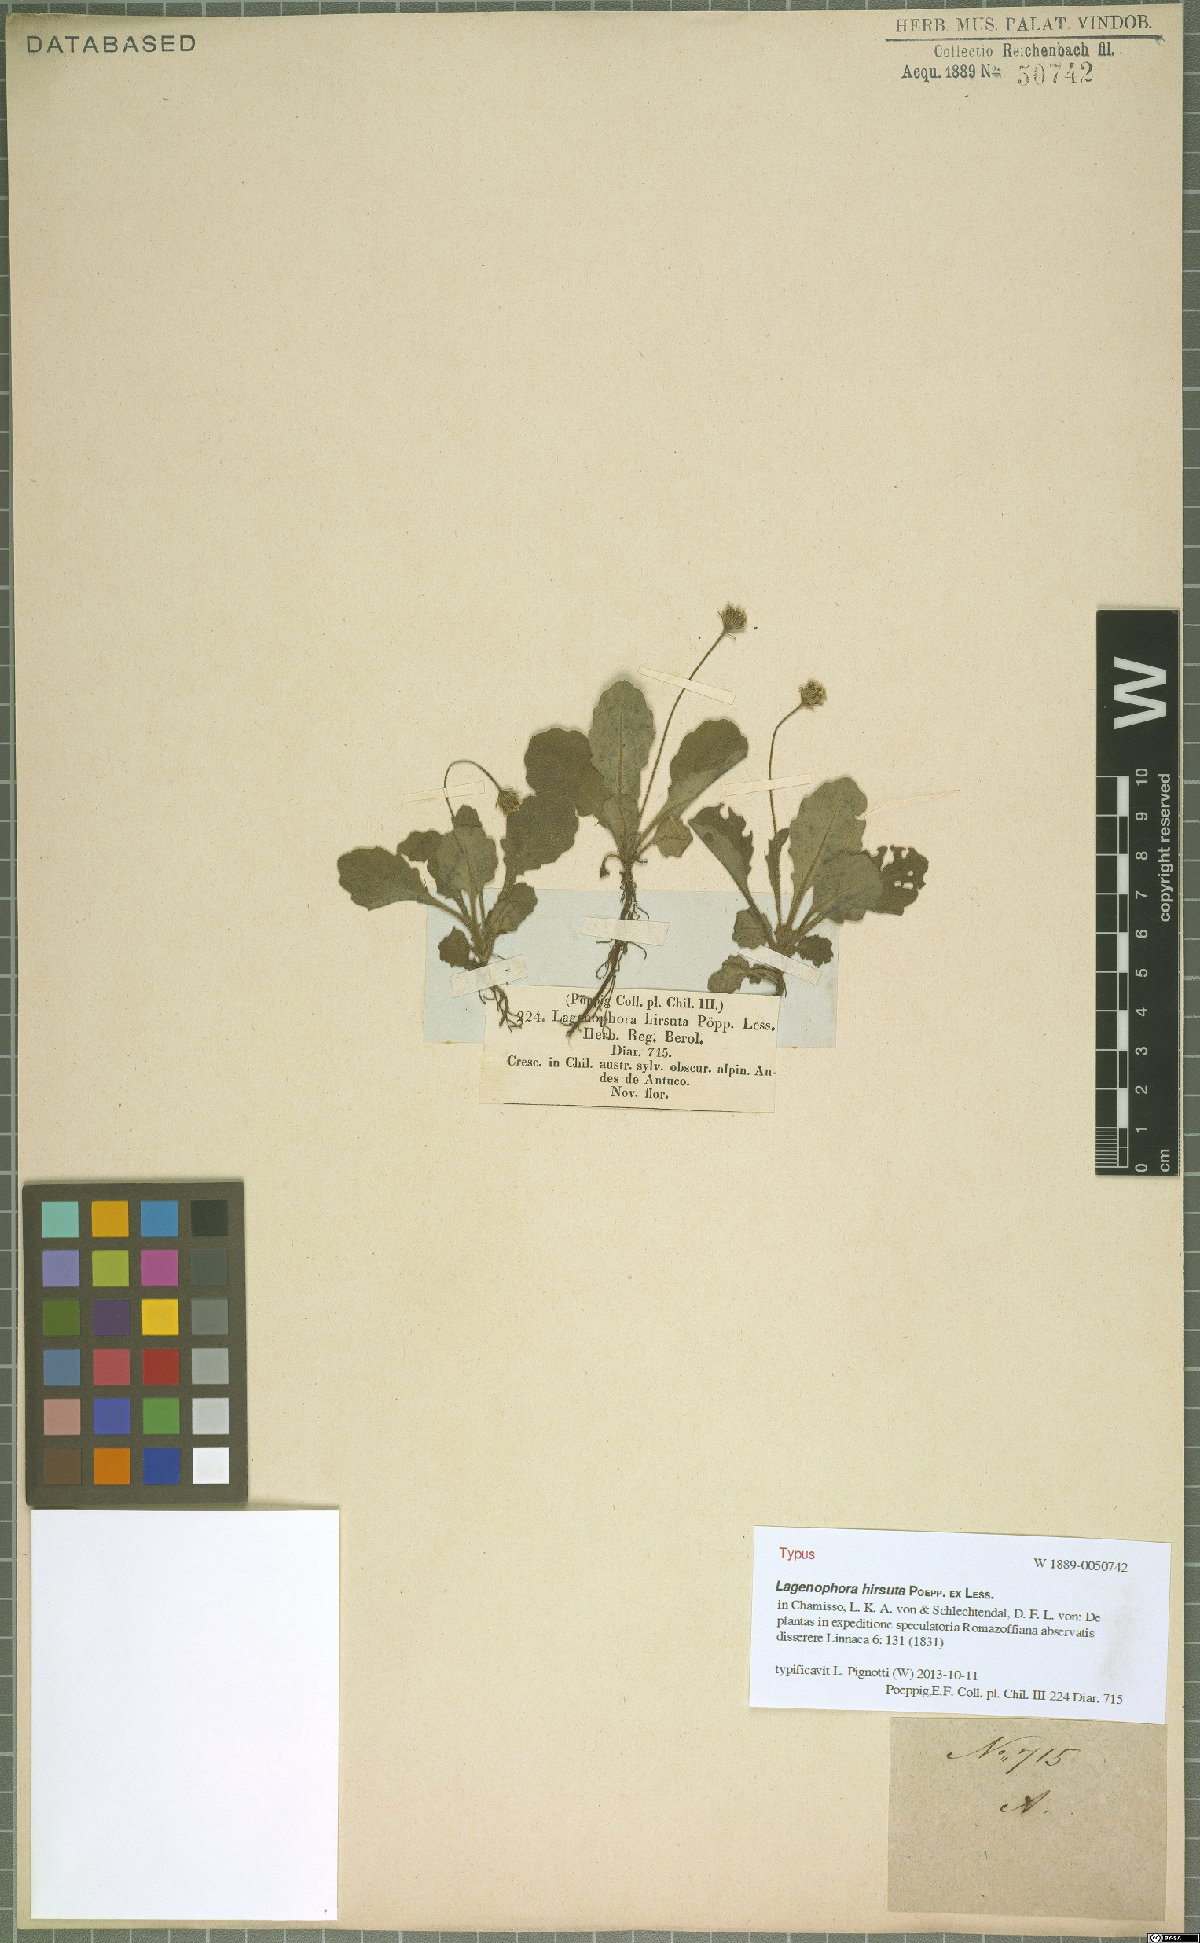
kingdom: Plantae
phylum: Tracheophyta
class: Magnoliopsida
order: Asterales
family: Asteraceae
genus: Lagenophora
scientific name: Lagenophora hirsuta
